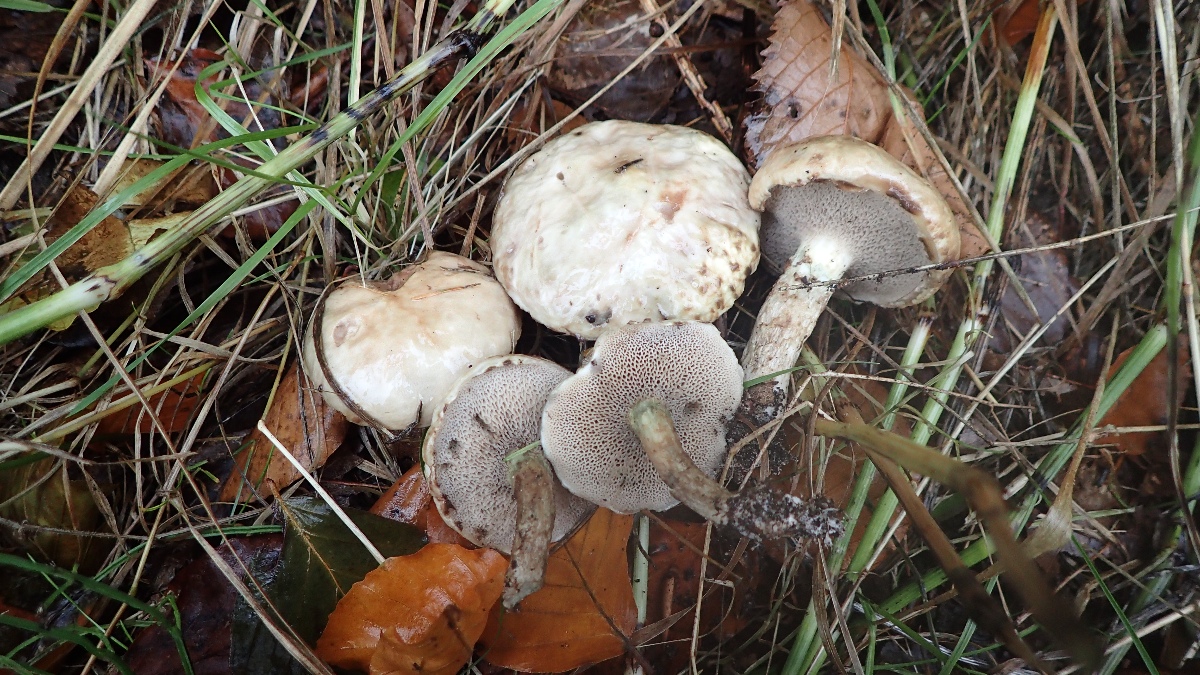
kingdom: Fungi
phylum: Basidiomycota
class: Agaricomycetes
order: Boletales
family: Suillaceae
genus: Suillus
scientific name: Suillus viscidus
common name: olivengrå slimrørhat
